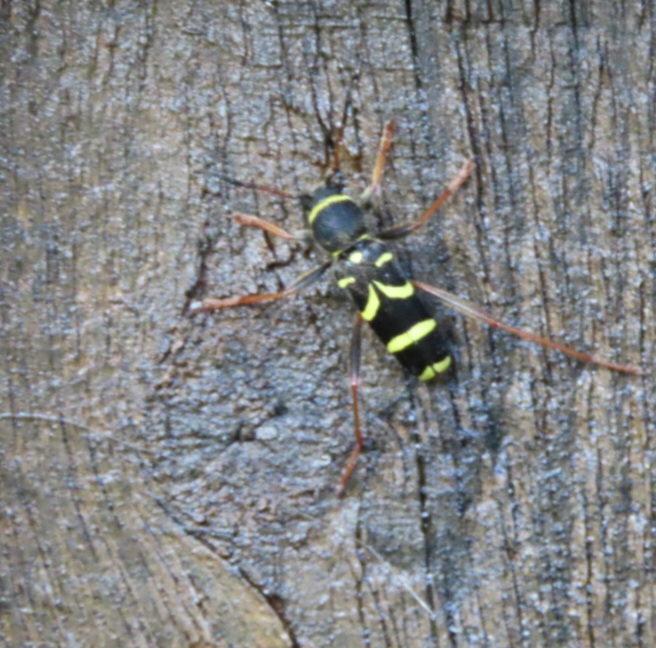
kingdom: Animalia
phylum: Arthropoda
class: Insecta
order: Coleoptera
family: Cerambycidae
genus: Clytus
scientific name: Clytus arietis
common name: Lille hvepsebuk
